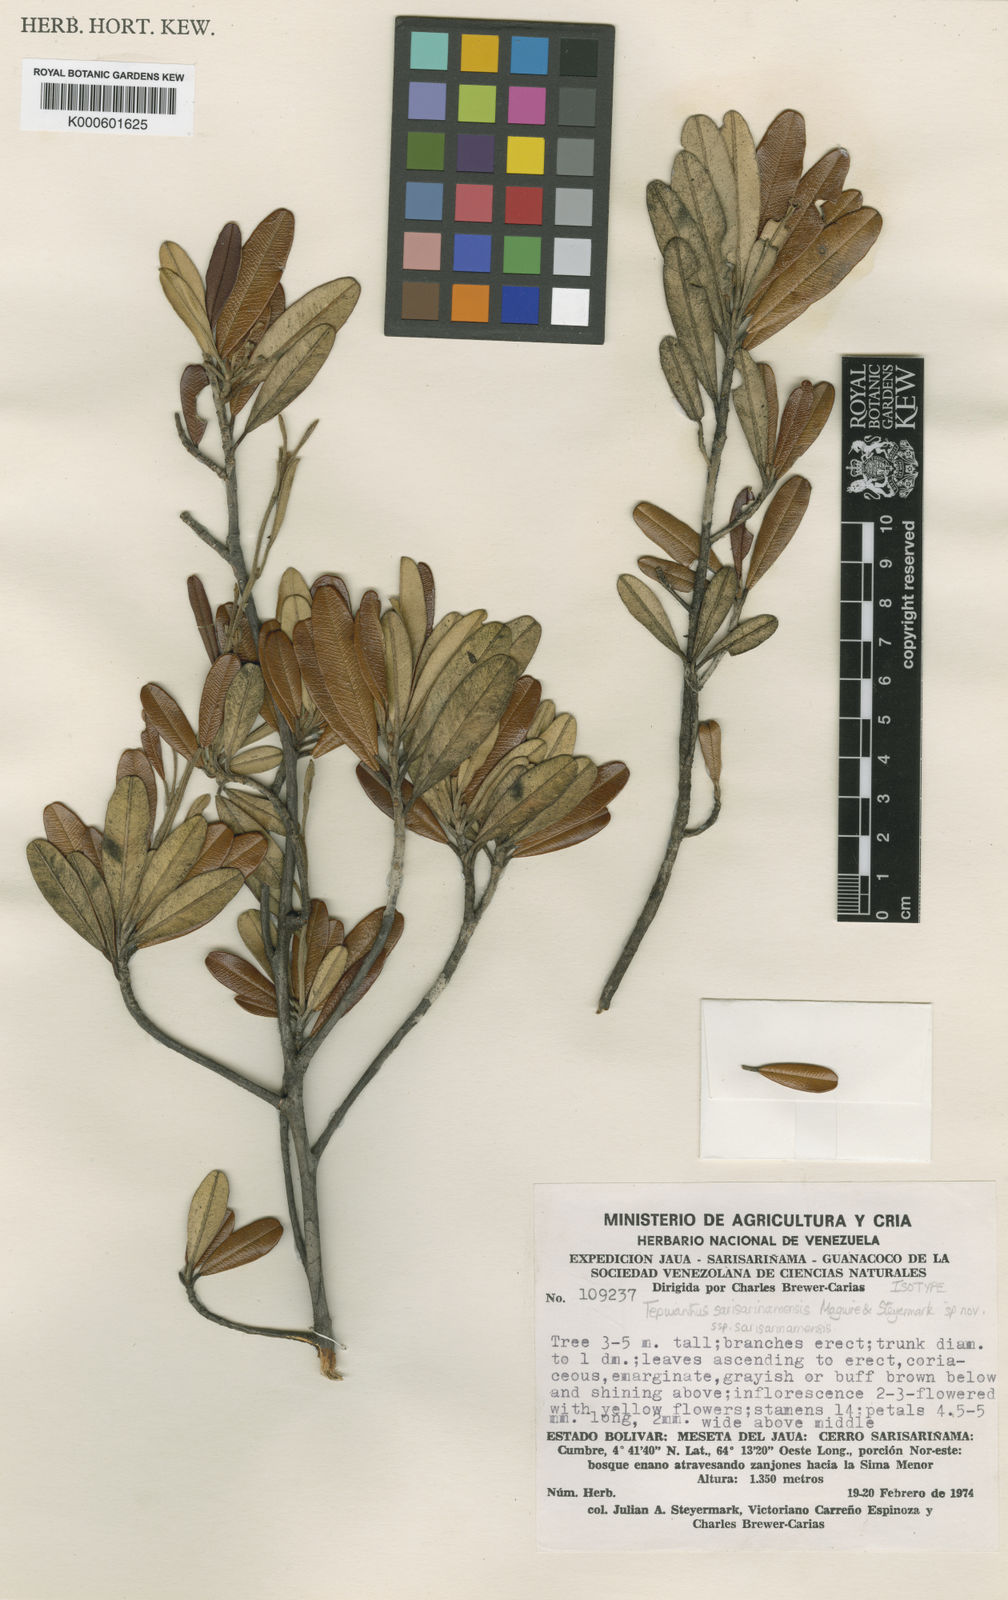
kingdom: Plantae
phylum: Tracheophyta
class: Magnoliopsida
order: Malvales
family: Thymelaeaceae
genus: Tepuianthus
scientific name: Tepuianthus sarisarinamensis
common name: Sarisariñama tepuianthus
